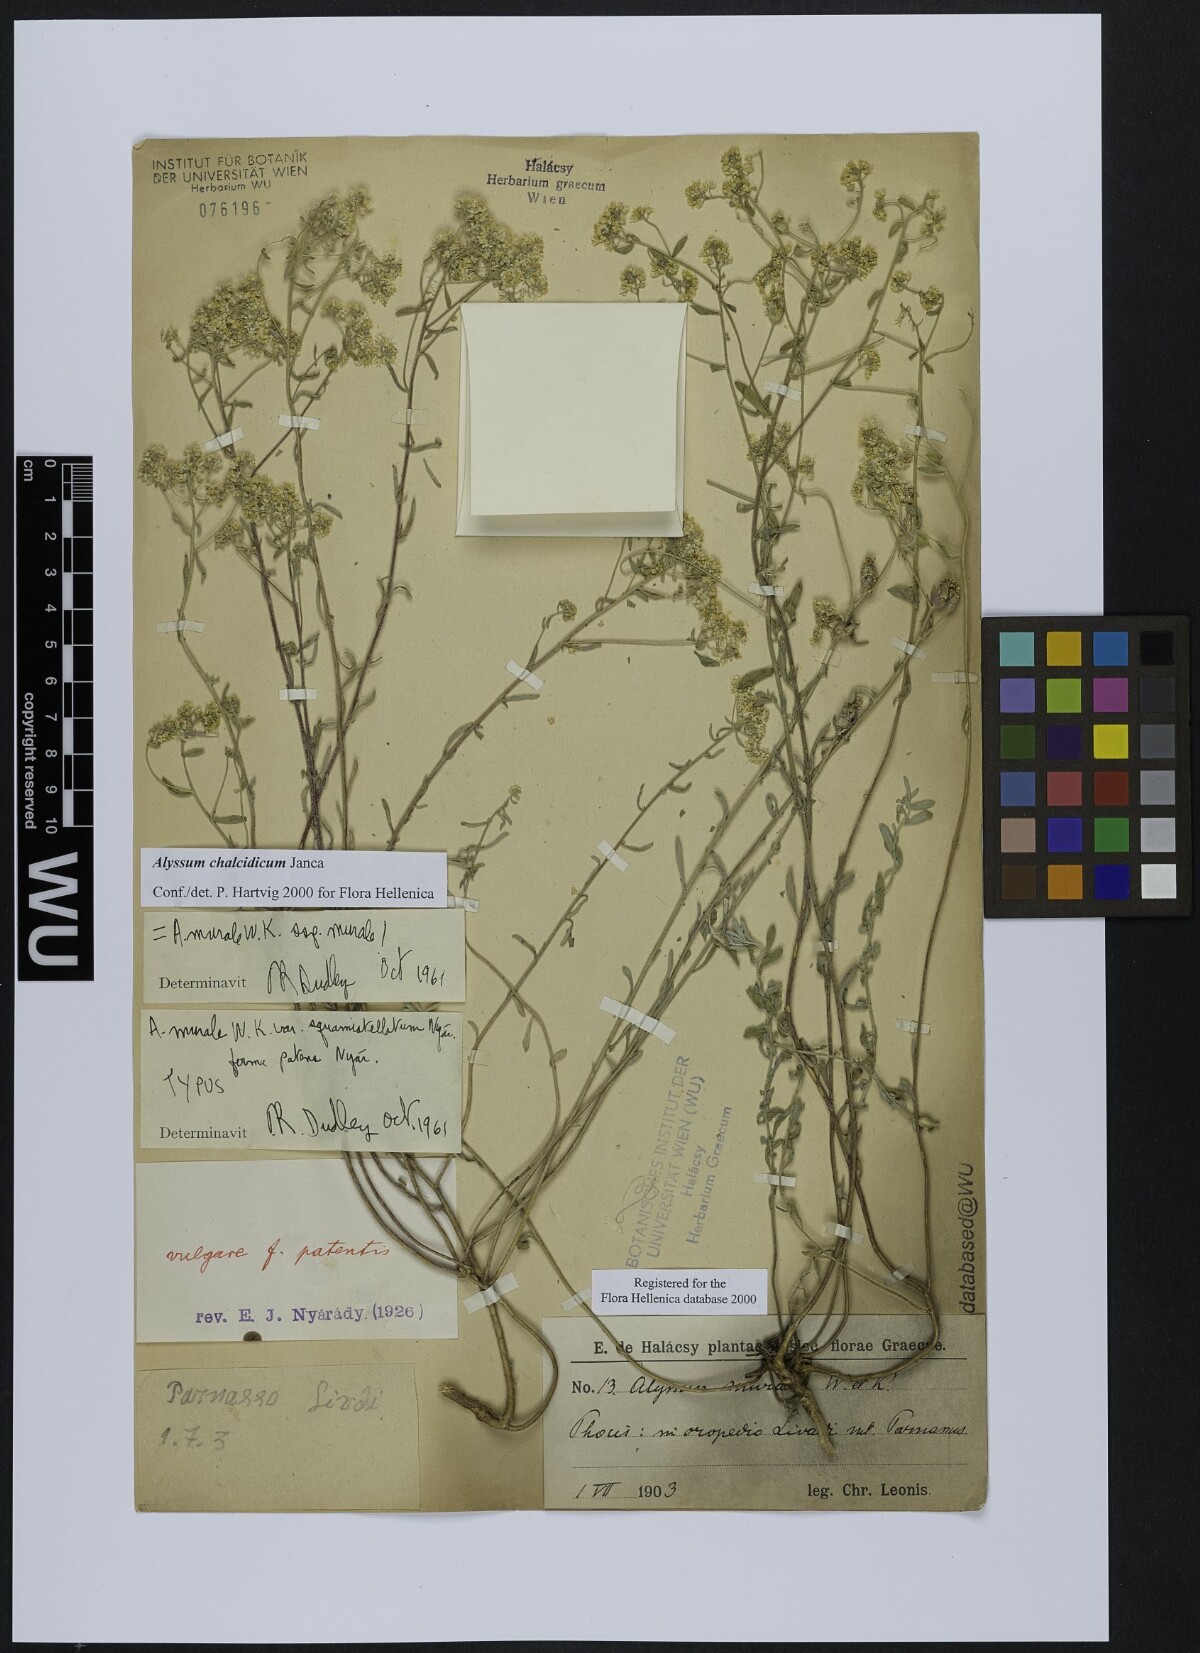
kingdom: Plantae
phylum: Tracheophyta
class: Magnoliopsida
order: Brassicales
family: Brassicaceae
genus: Odontarrhena
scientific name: Odontarrhena chalcidica
